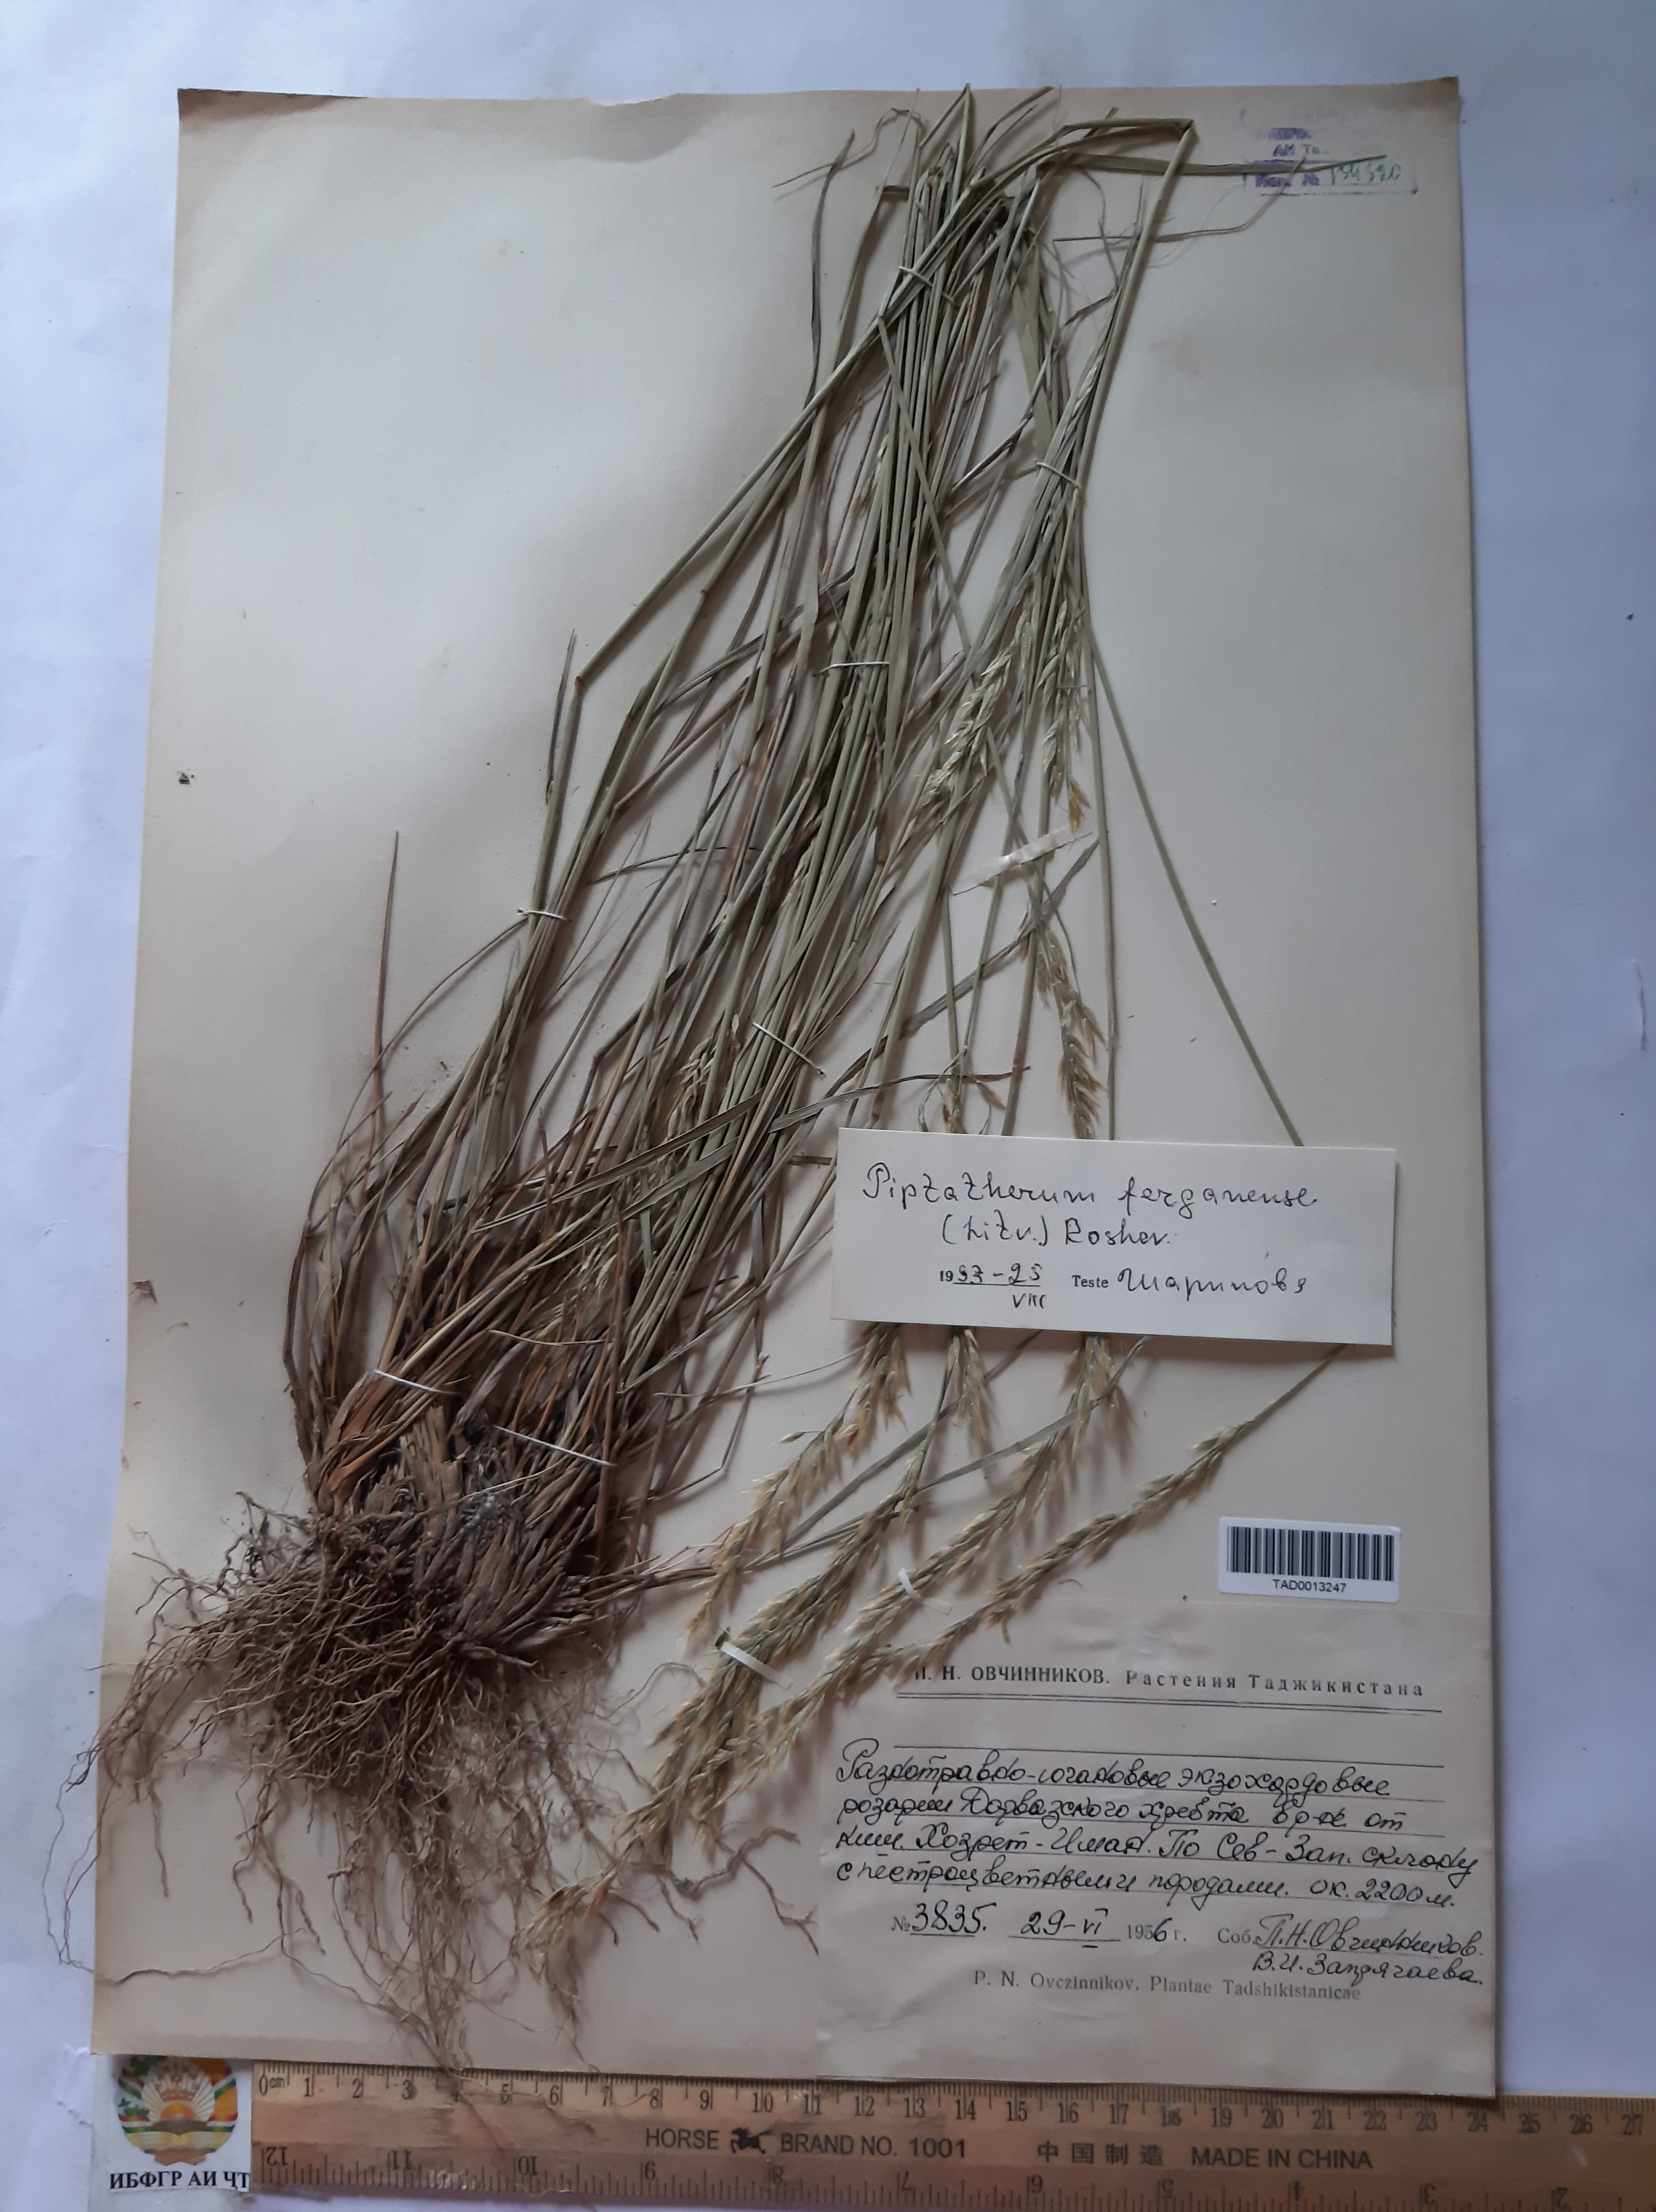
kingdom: Plantae
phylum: Tracheophyta
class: Liliopsida
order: Poales
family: Poaceae
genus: Piptatherum
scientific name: Piptatherum ferganense
